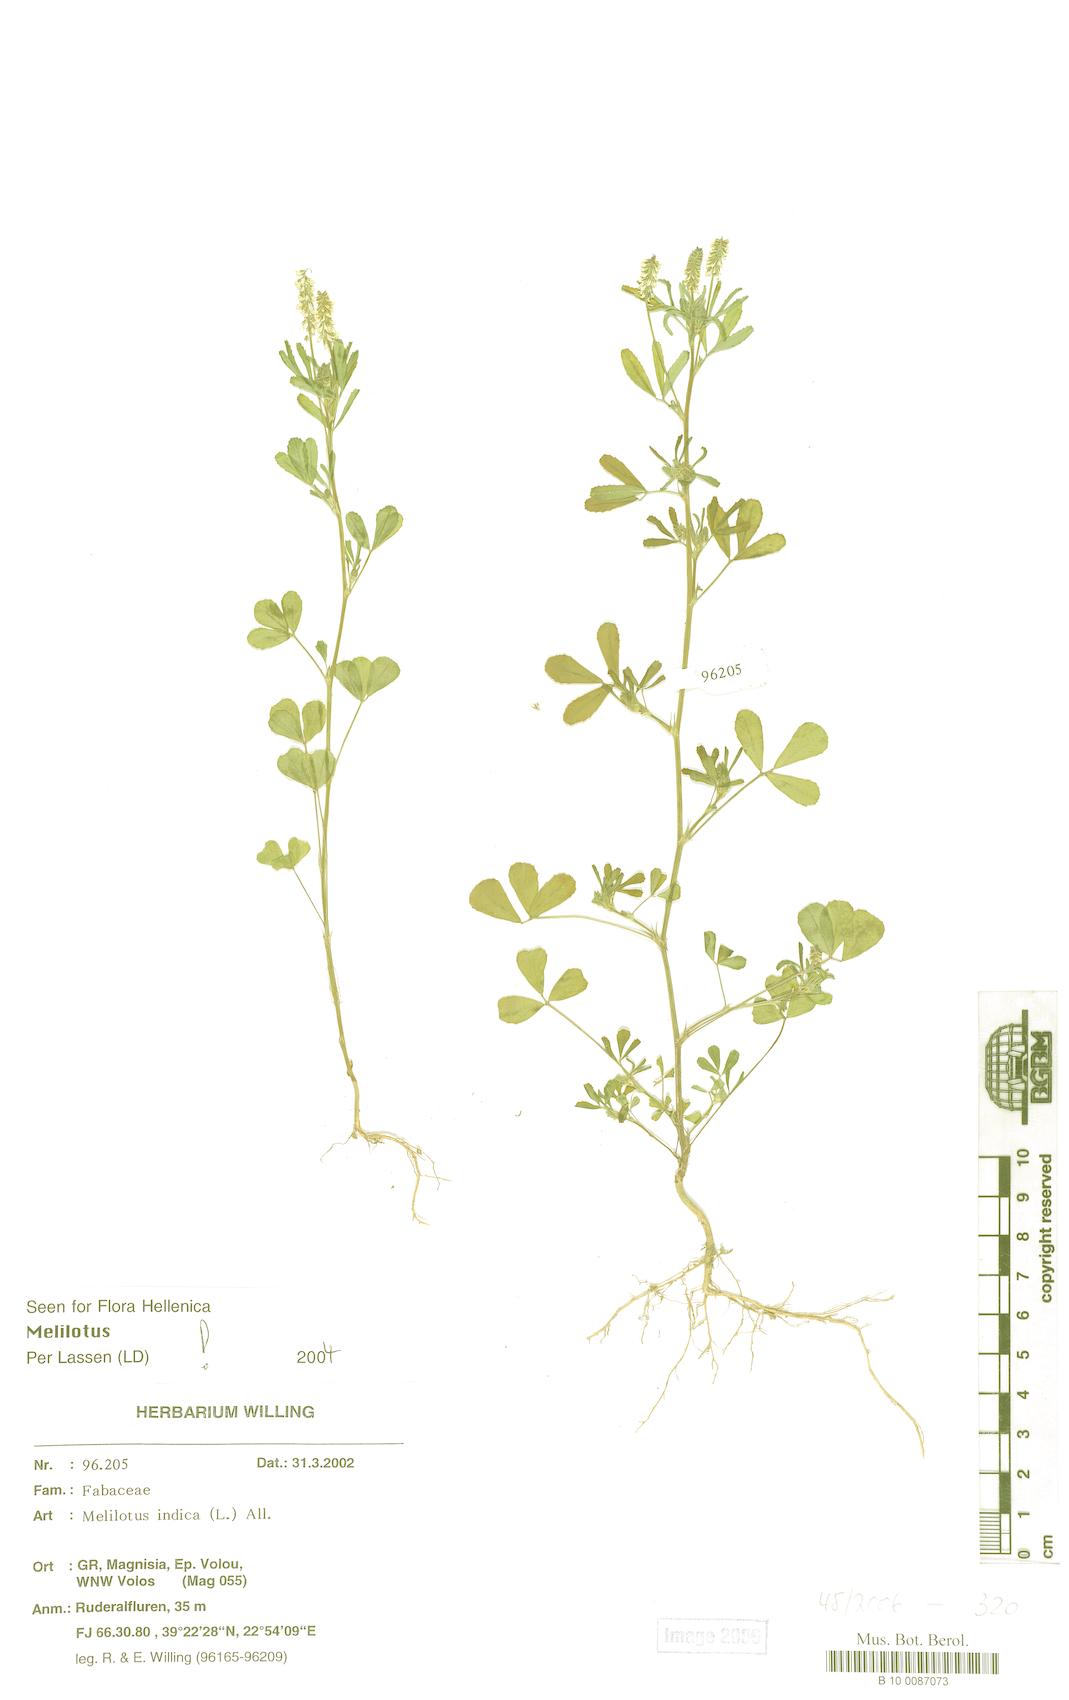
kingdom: Plantae
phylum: Tracheophyta
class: Magnoliopsida
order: Fabales
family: Fabaceae
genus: Melilotus
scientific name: Melilotus indicus
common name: Small melilot
